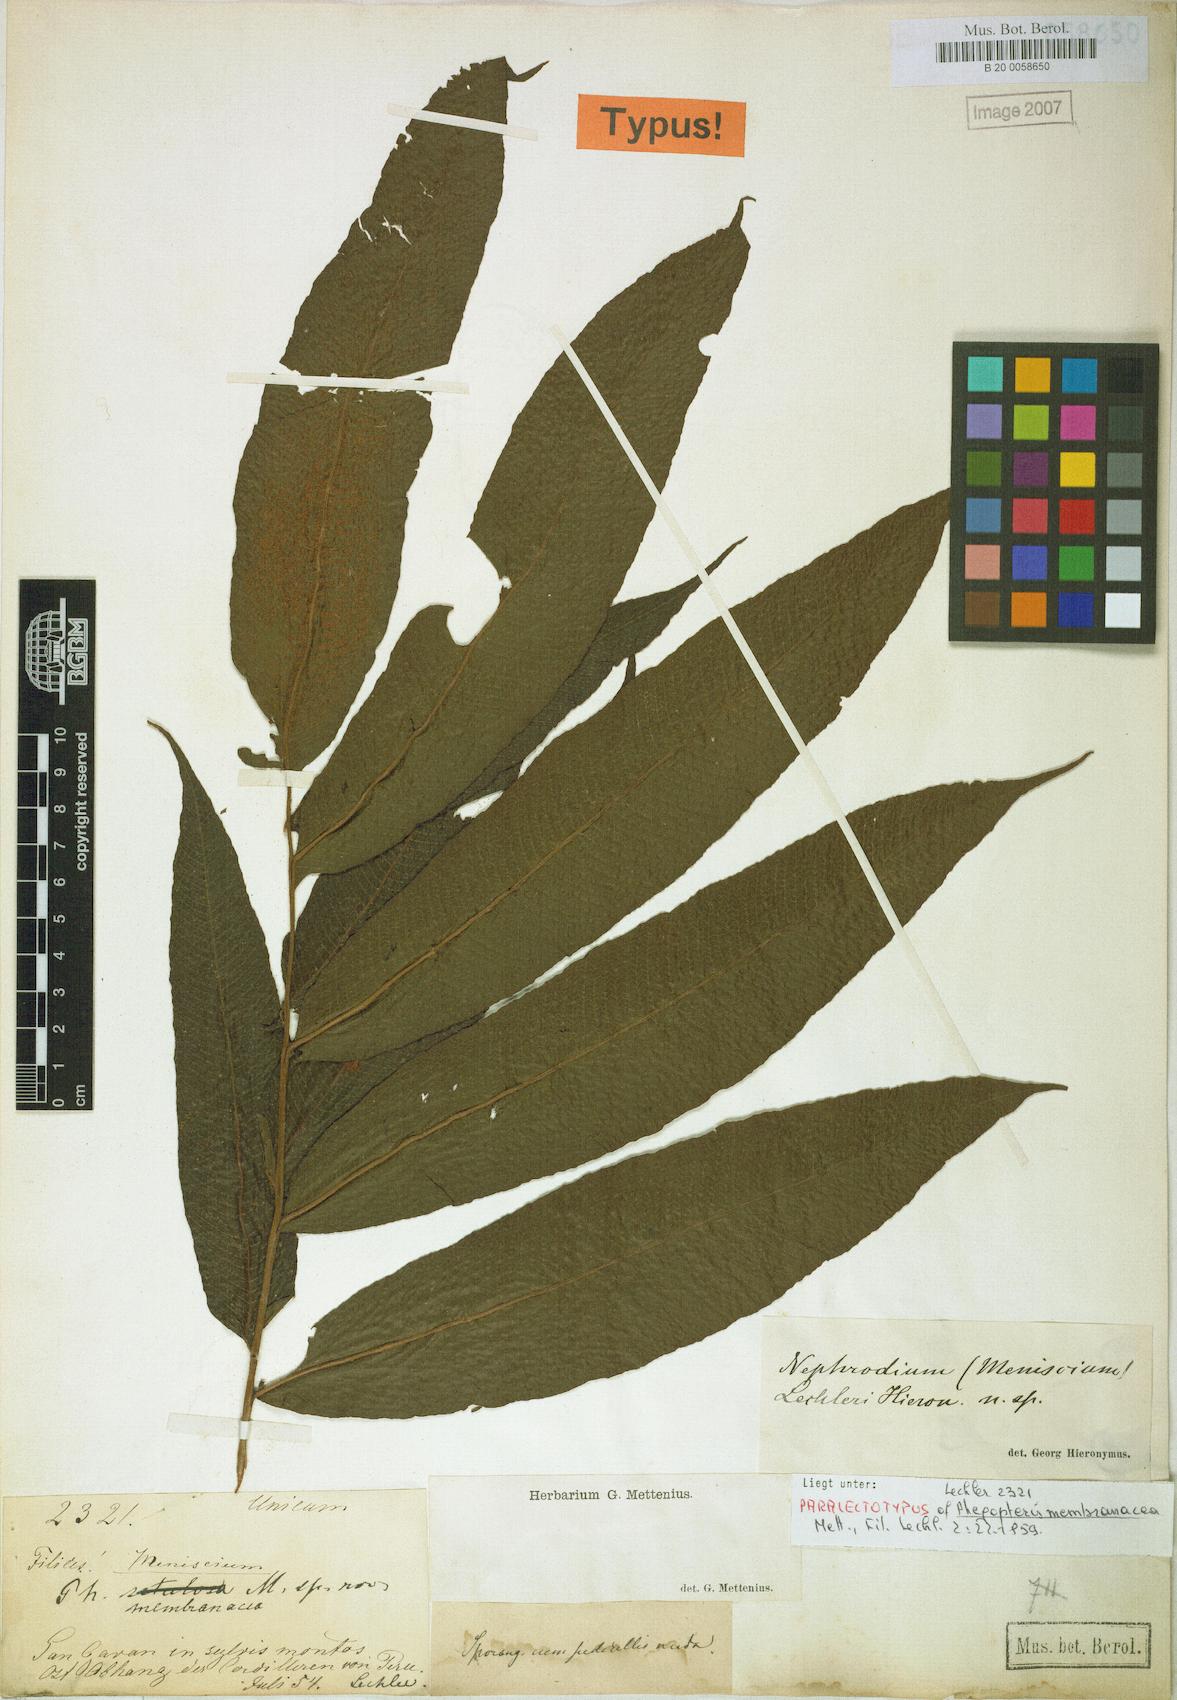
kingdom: Plantae
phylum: Tracheophyta
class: Polypodiopsida
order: Polypodiales
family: Thelypteridaceae
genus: Meniscium
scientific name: Meniscium membranaceum
